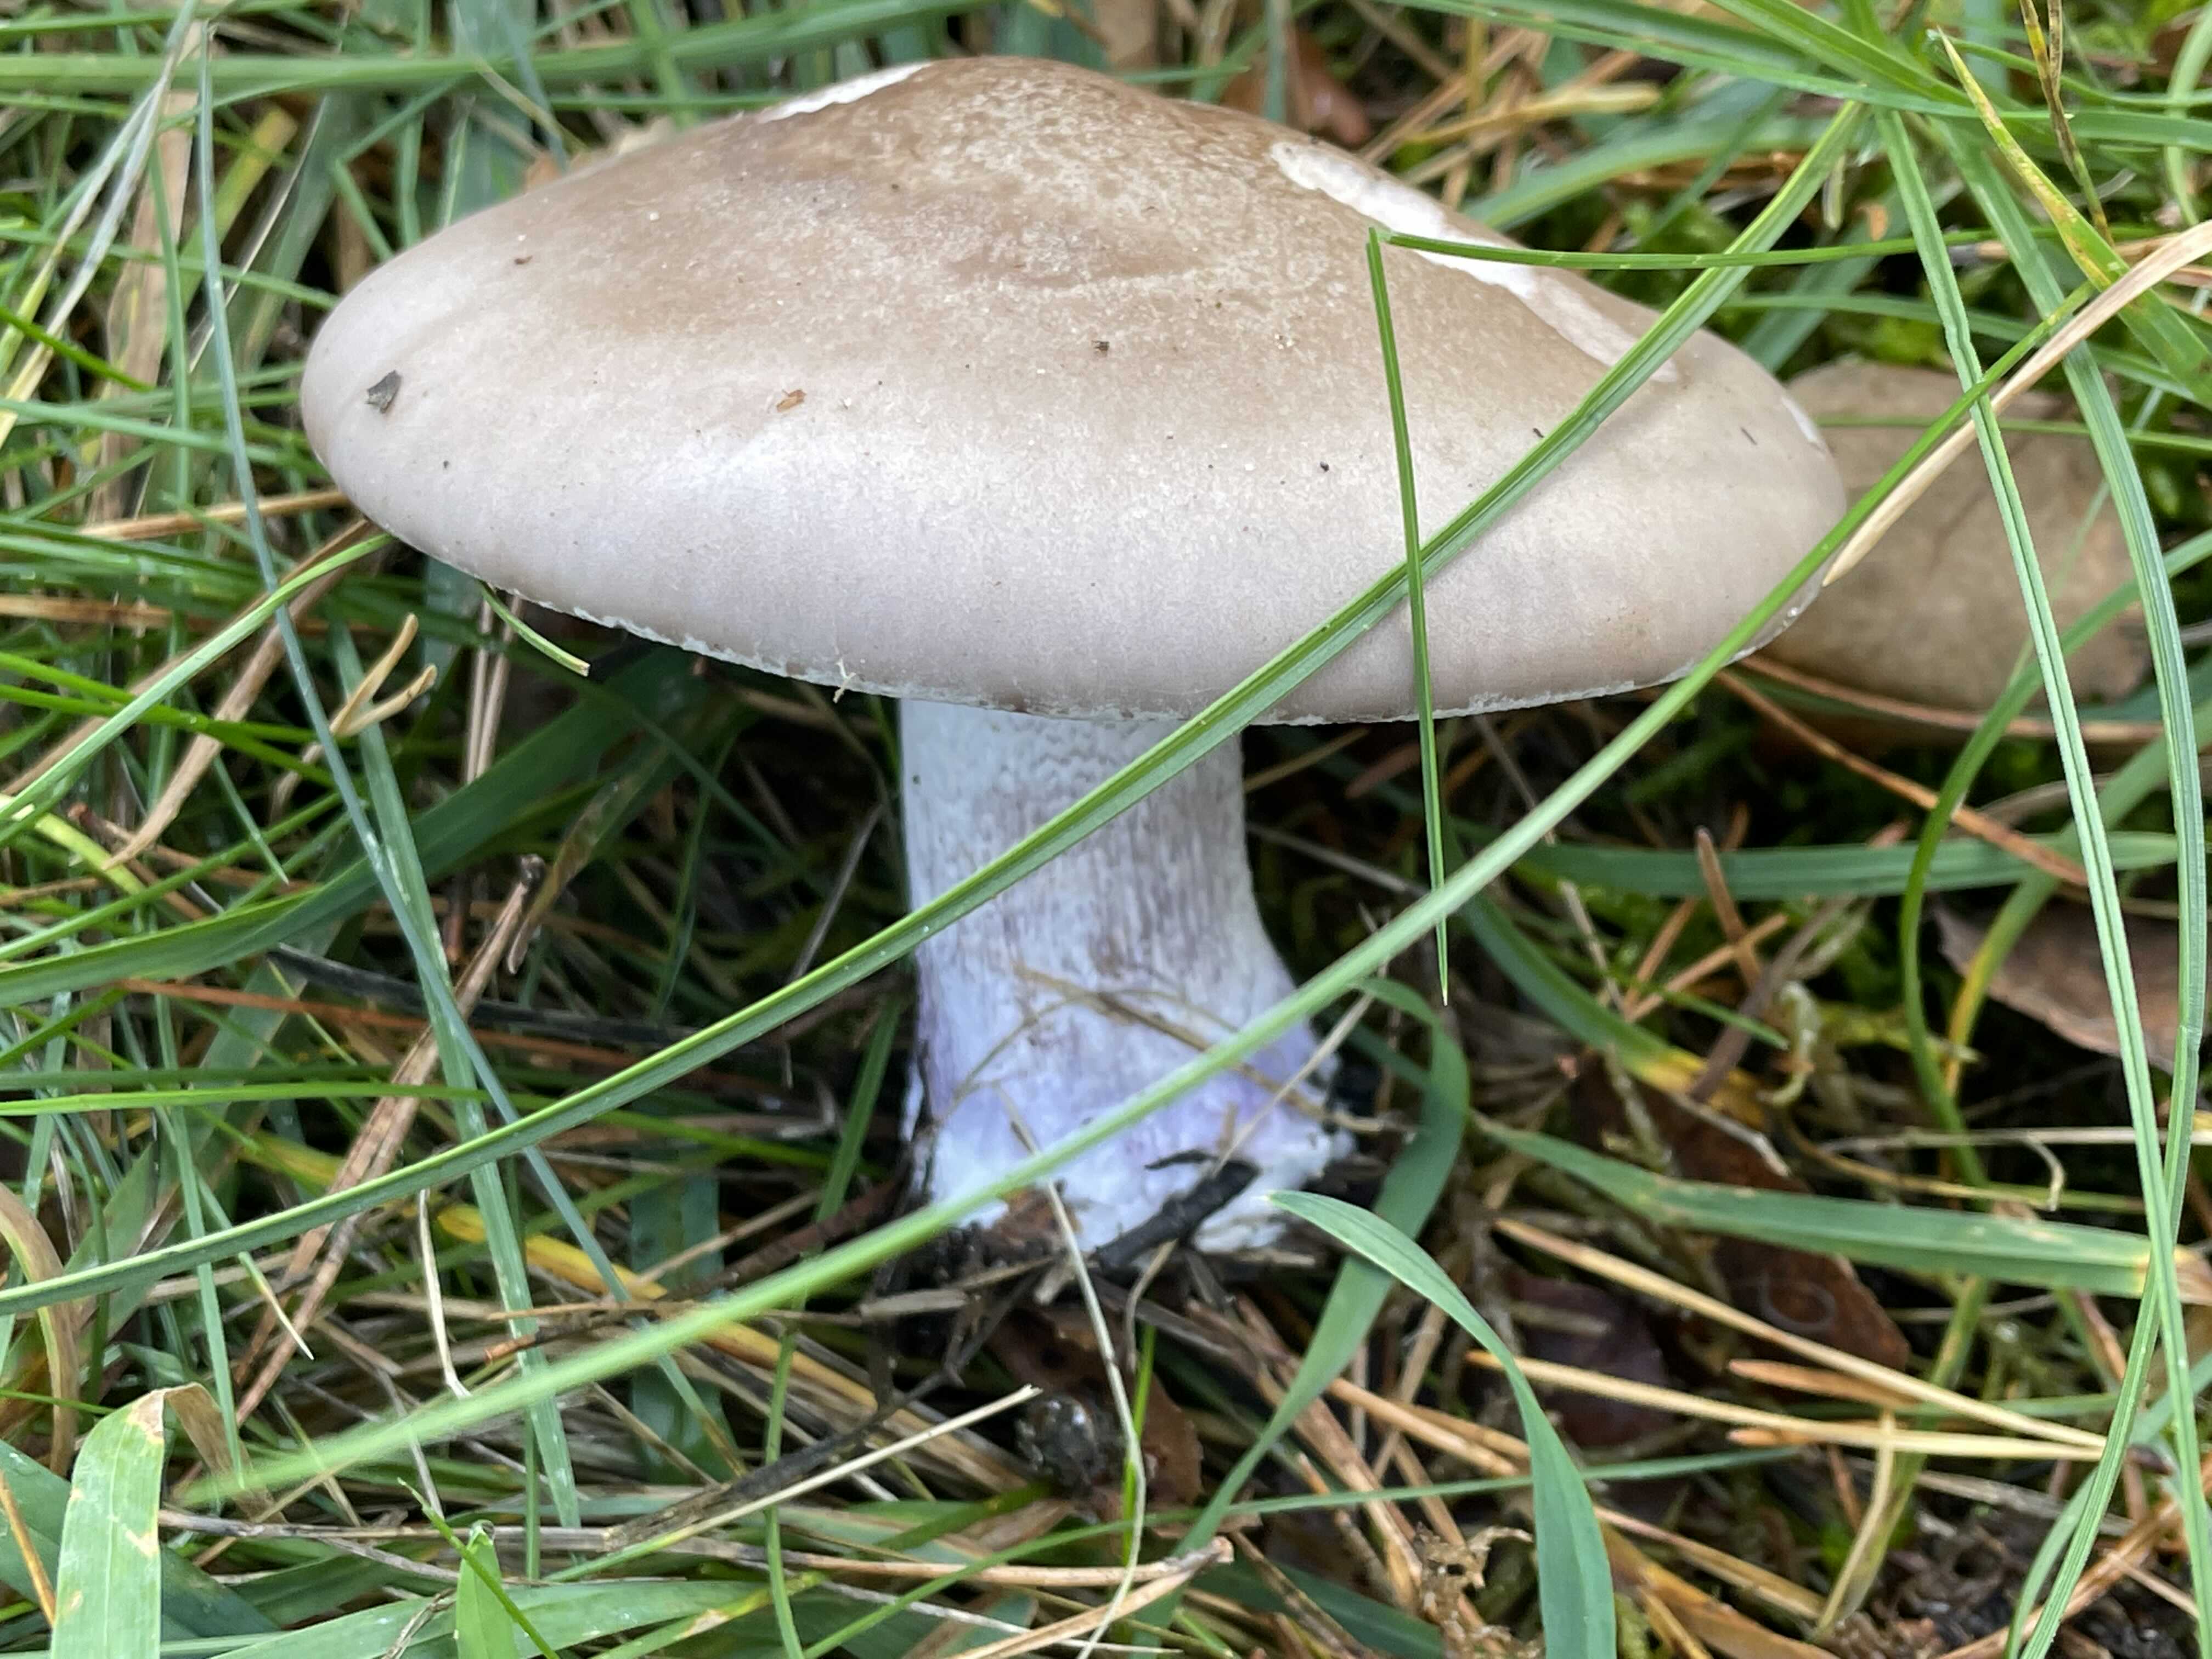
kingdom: Fungi
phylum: Basidiomycota
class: Agaricomycetes
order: Agaricales
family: Tricholomataceae
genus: Lepista
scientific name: Lepista nuda
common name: violet hekseringshat
